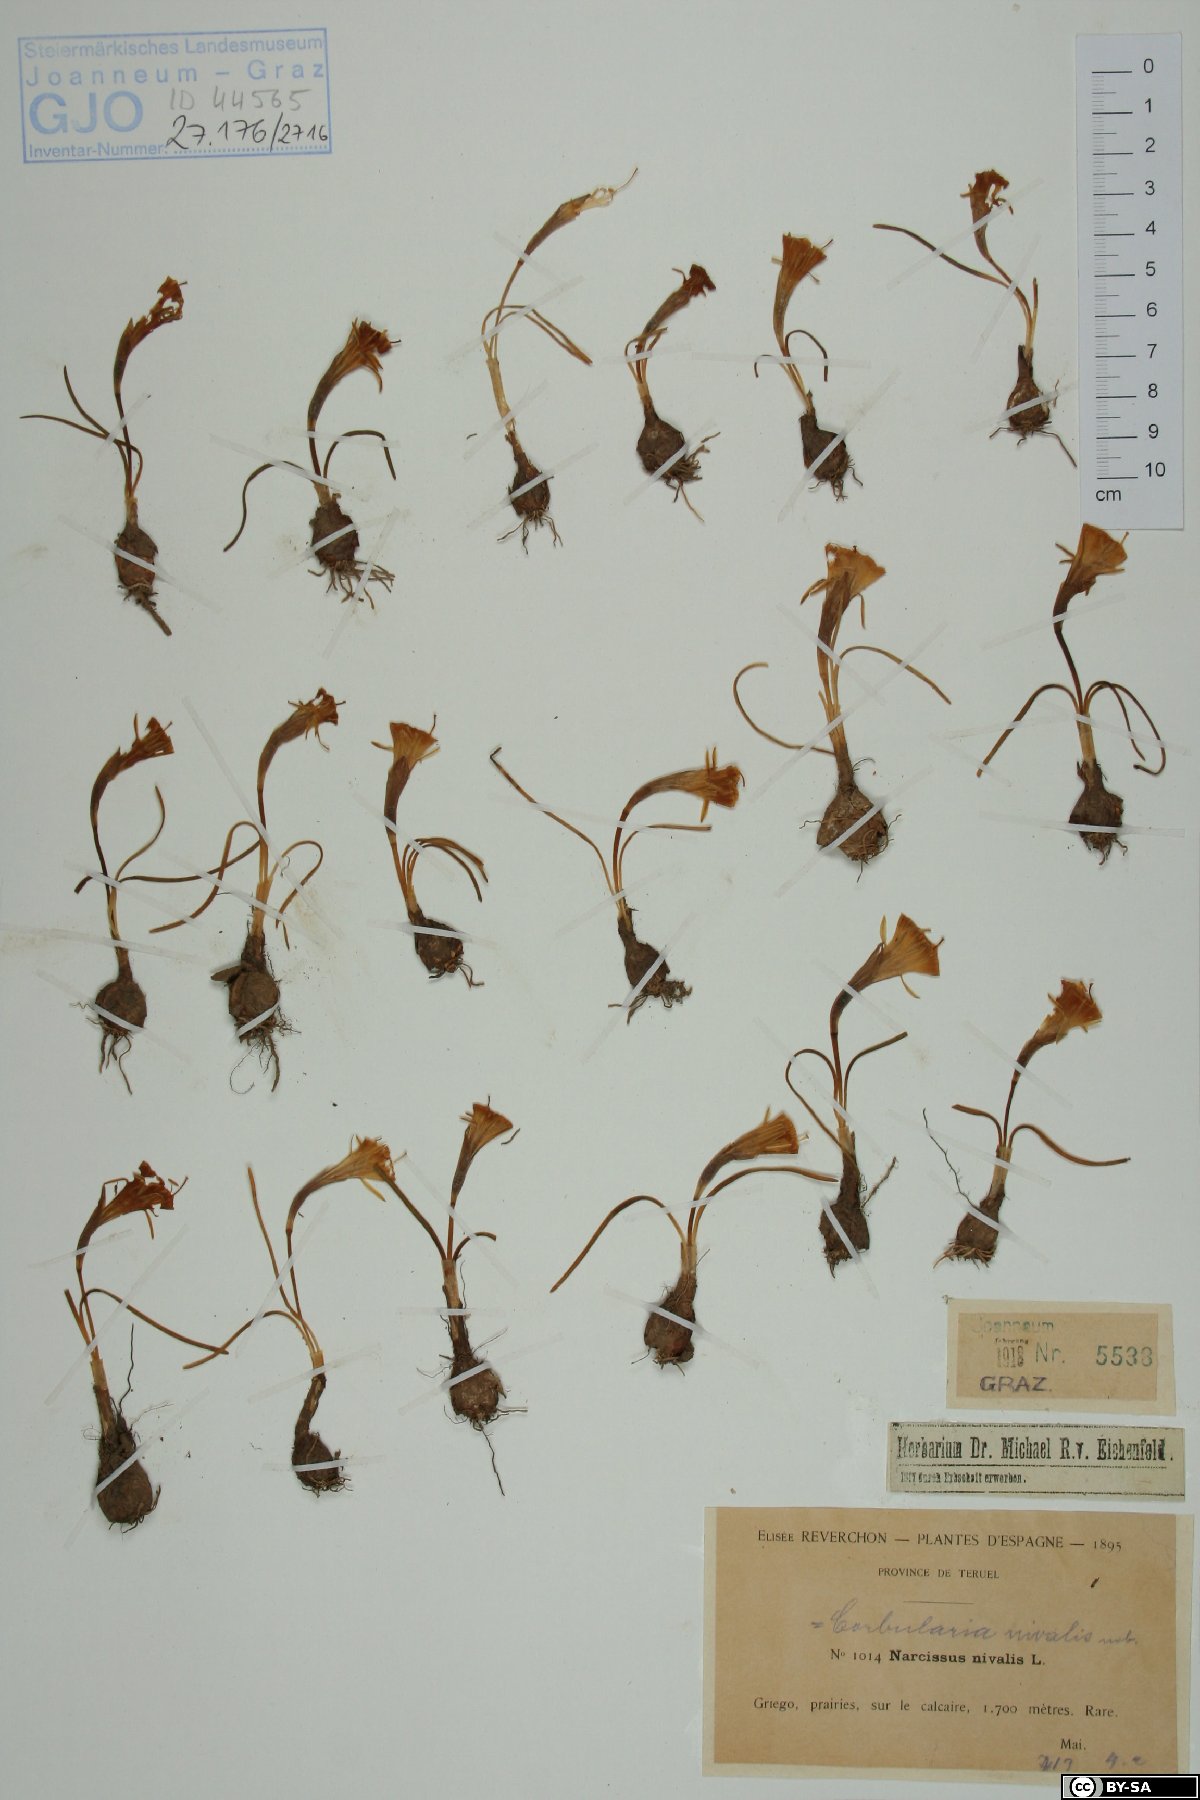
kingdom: Plantae
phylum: Tracheophyta
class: Liliopsida
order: Asparagales
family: Amaryllidaceae
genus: Narcissus
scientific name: Narcissus bulbocodium
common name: Hoop-petticoat daffodil
